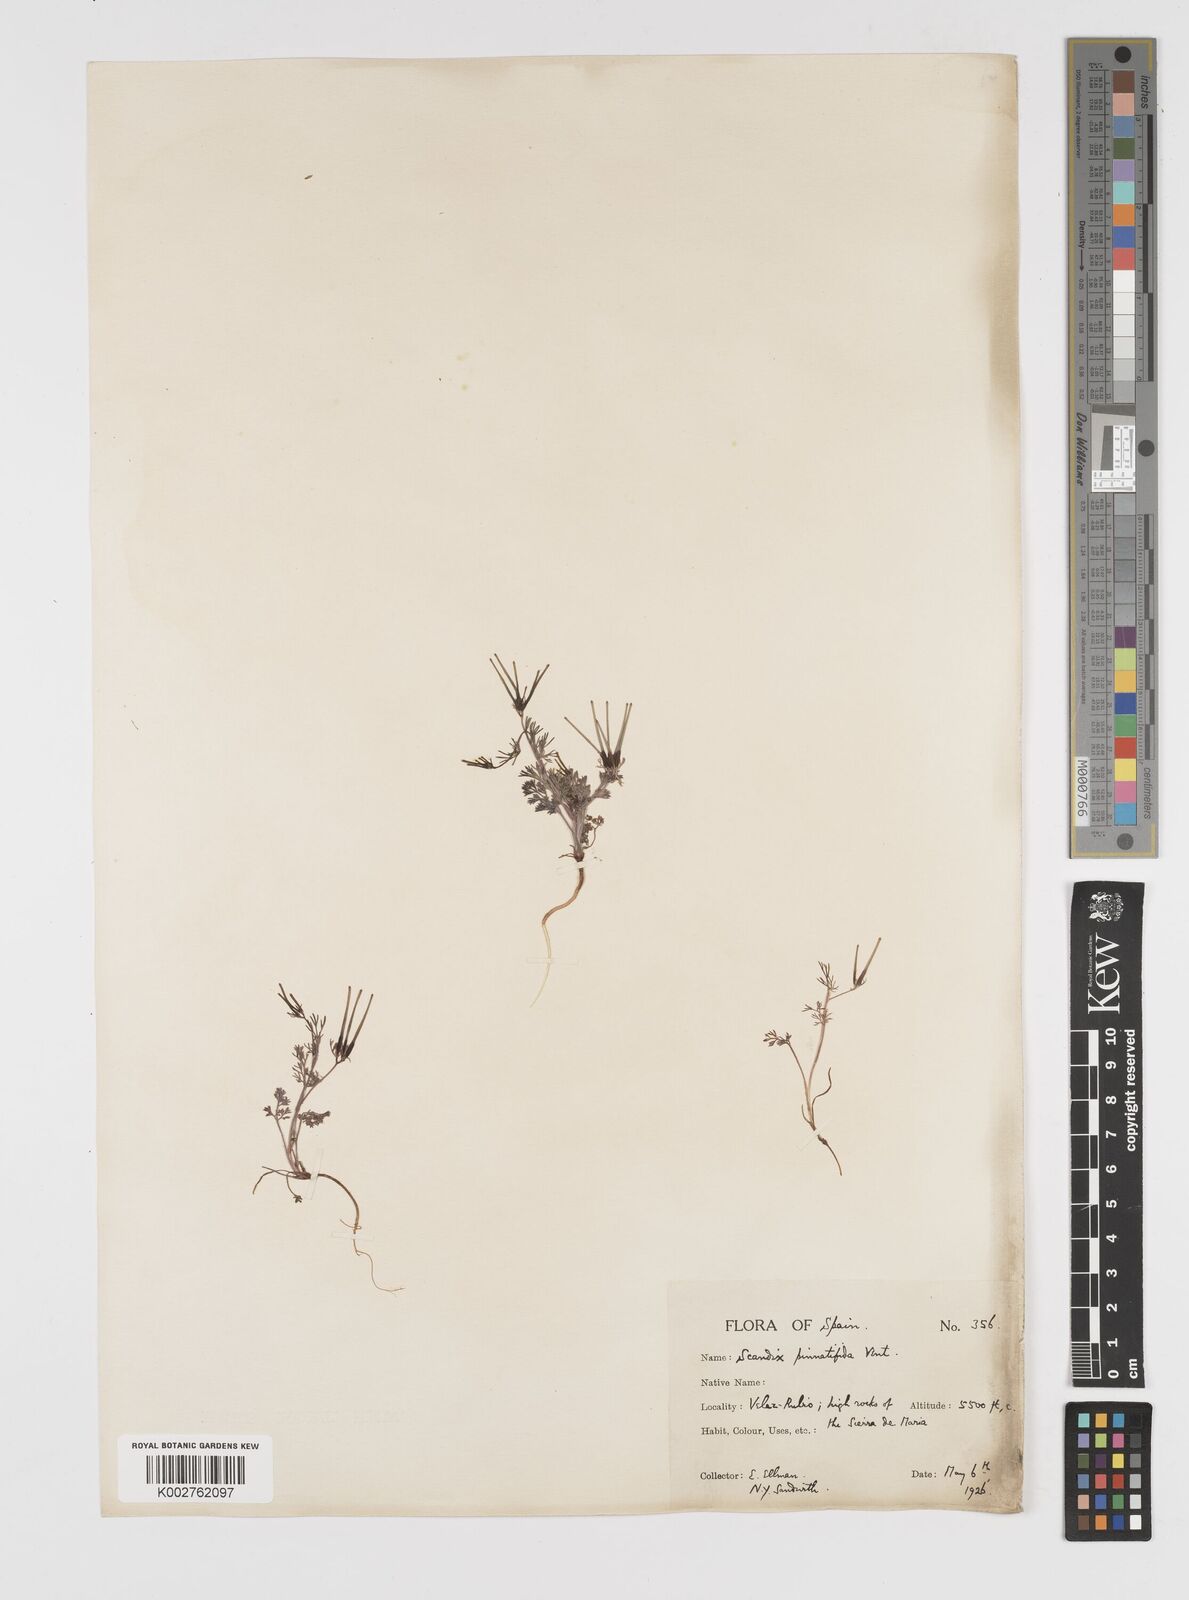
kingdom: Plantae
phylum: Tracheophyta
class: Magnoliopsida
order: Apiales
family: Apiaceae
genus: Scandix
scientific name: Scandix stellata
